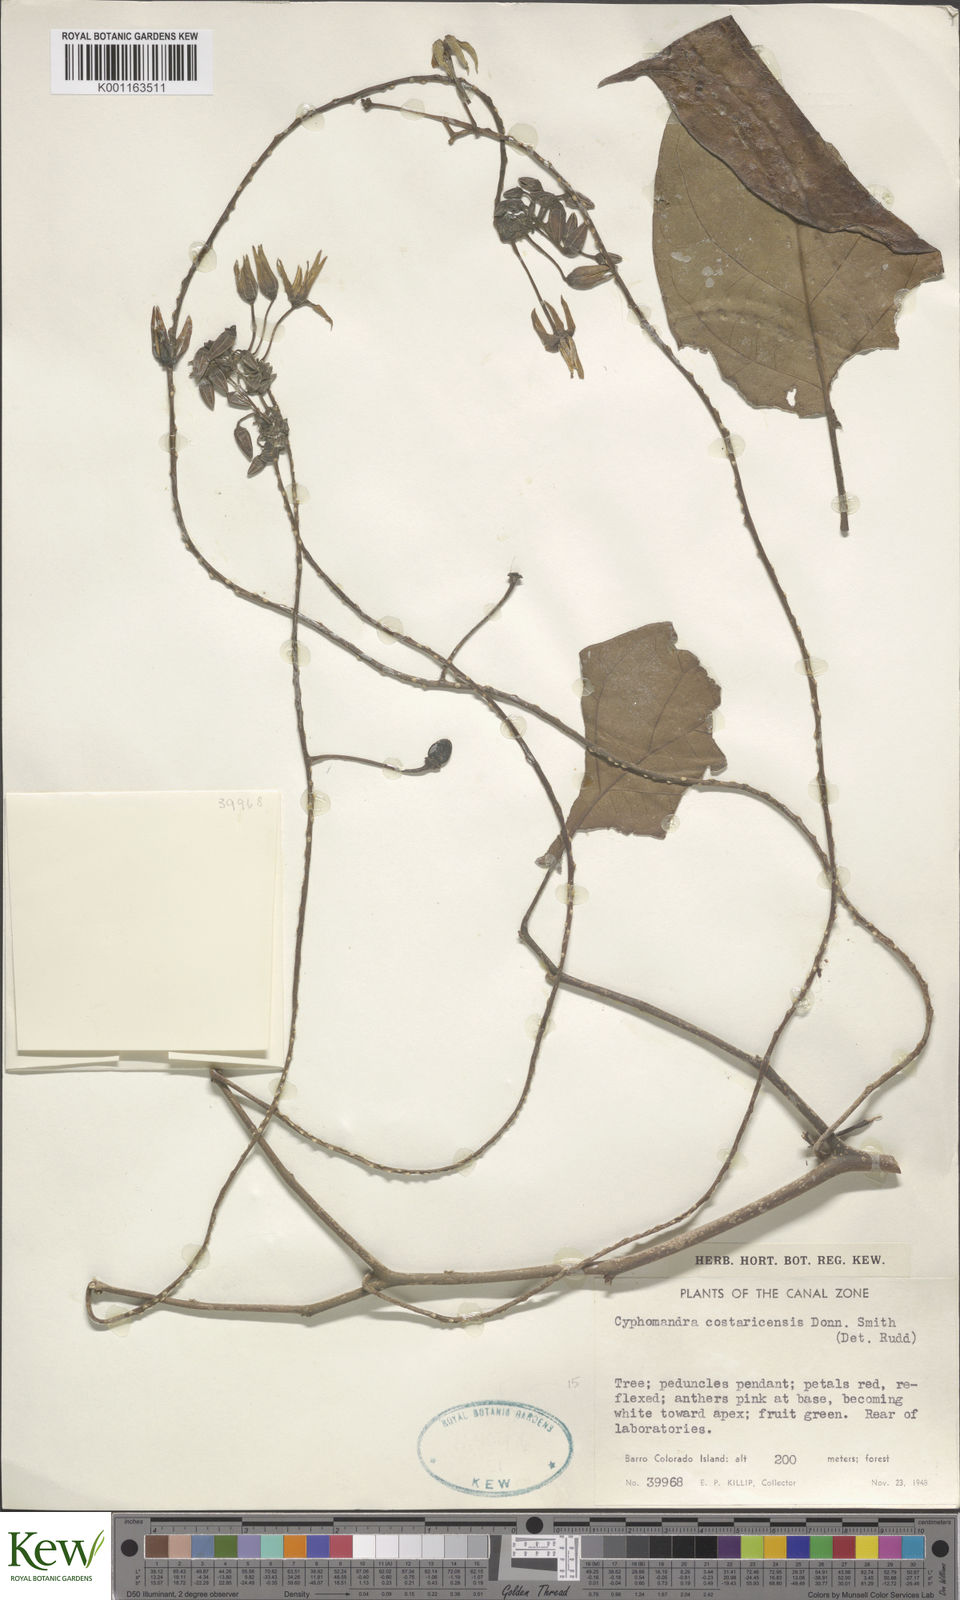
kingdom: Plantae
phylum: Tracheophyta
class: Magnoliopsida
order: Solanales
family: Solanaceae
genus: Solanum
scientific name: Solanum splendens
